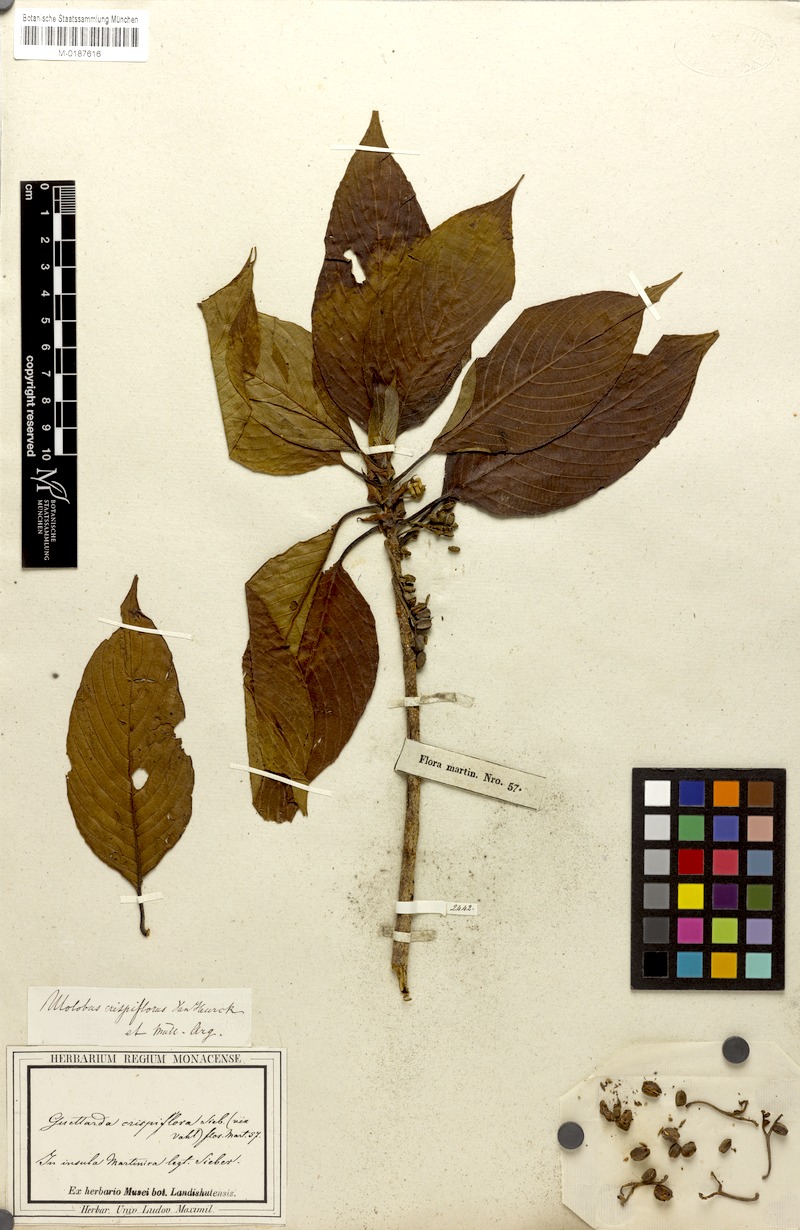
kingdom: Plantae
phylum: Tracheophyta
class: Magnoliopsida
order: Gentianales
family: Rubiaceae
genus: Tournefortiopsis
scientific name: Tournefortiopsis crispiflora
